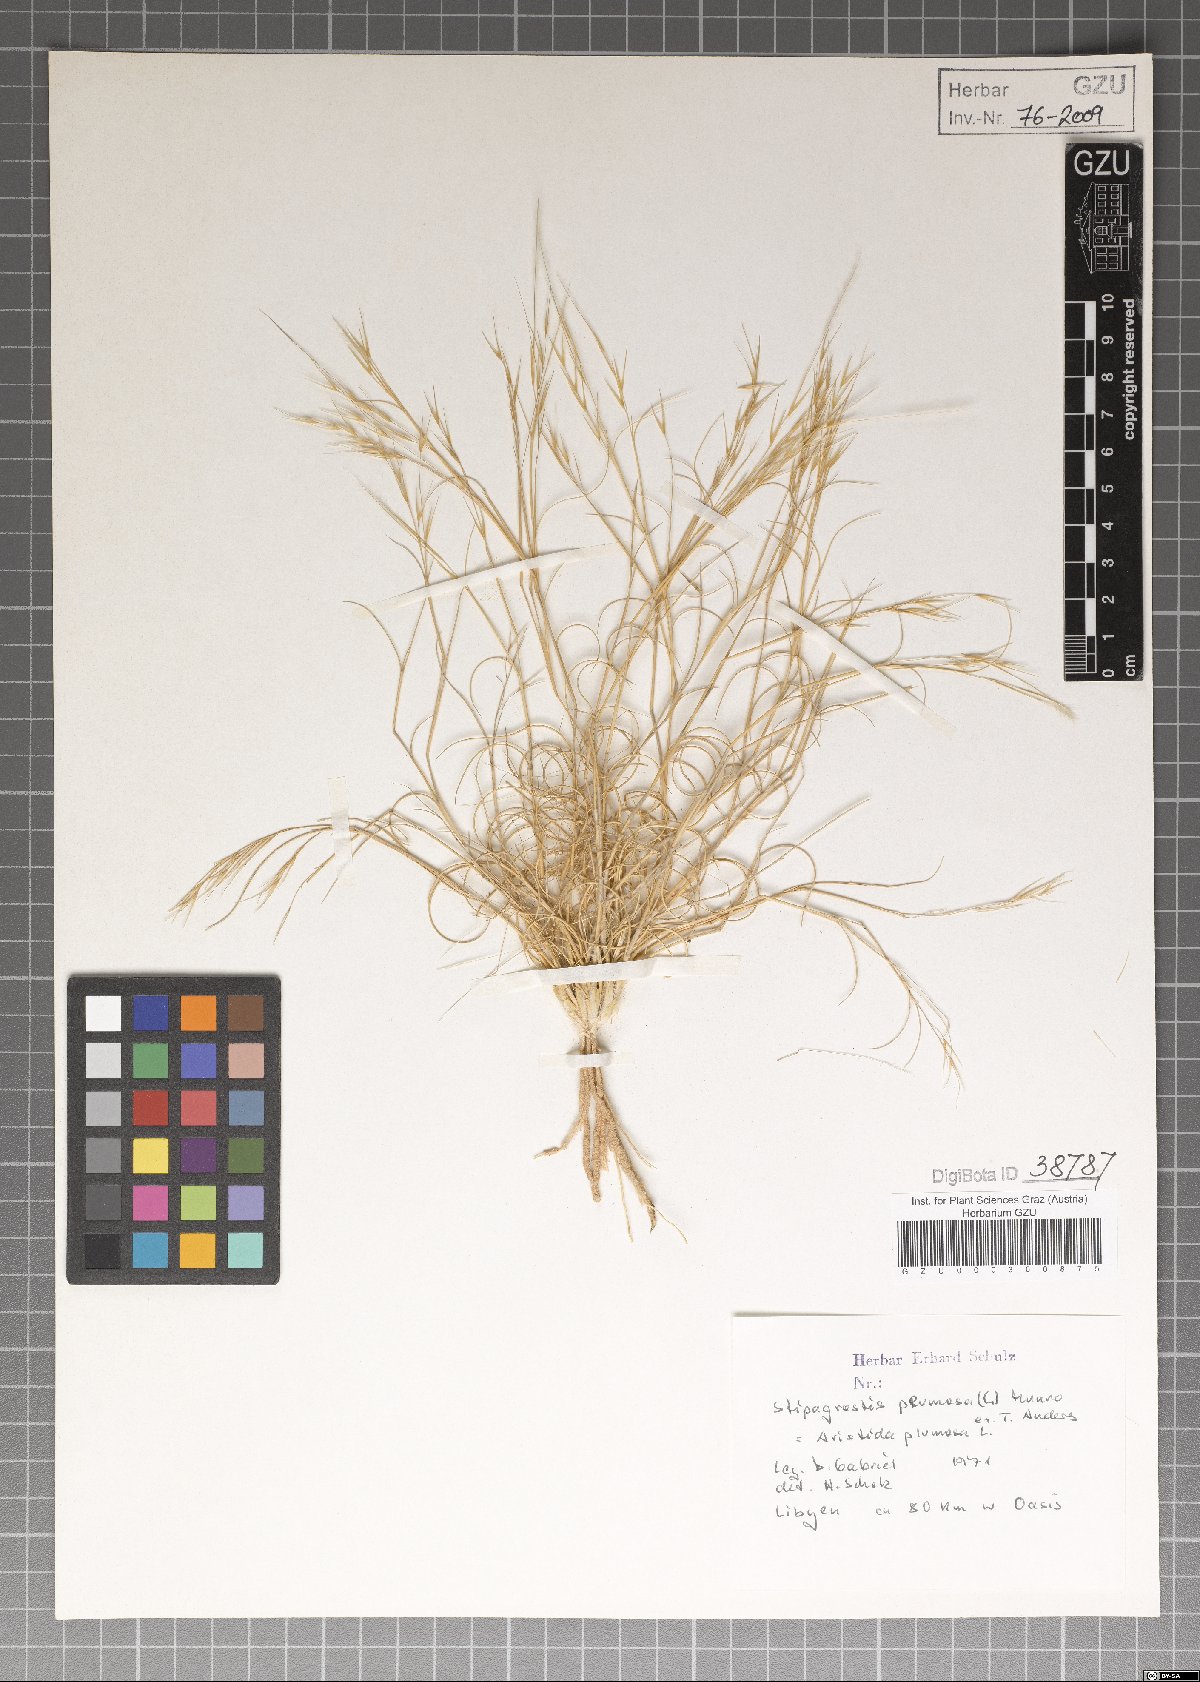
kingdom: Plantae
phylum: Tracheophyta
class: Liliopsida
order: Poales
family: Poaceae
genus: Stipagrostis
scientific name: Stipagrostis plumosa
